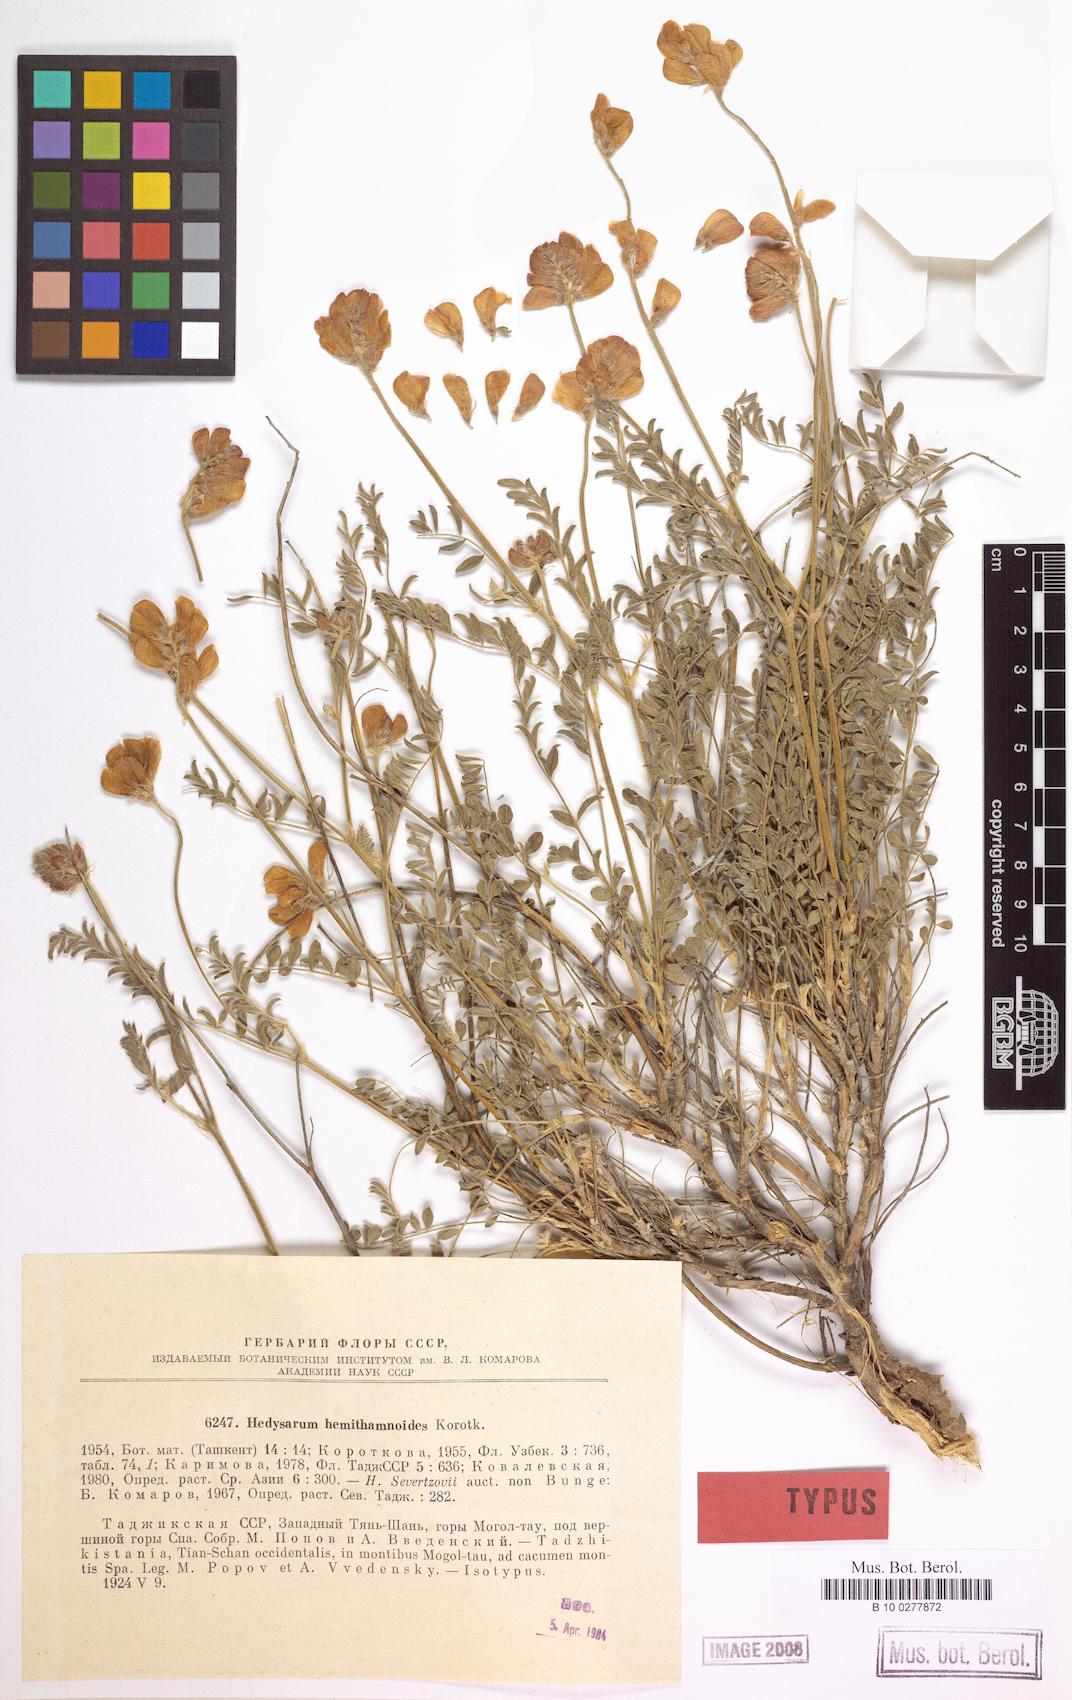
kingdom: Plantae
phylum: Tracheophyta
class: Magnoliopsida
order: Fabales
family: Fabaceae
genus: Hedysarum
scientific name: Hedysarum hemithamnoides
